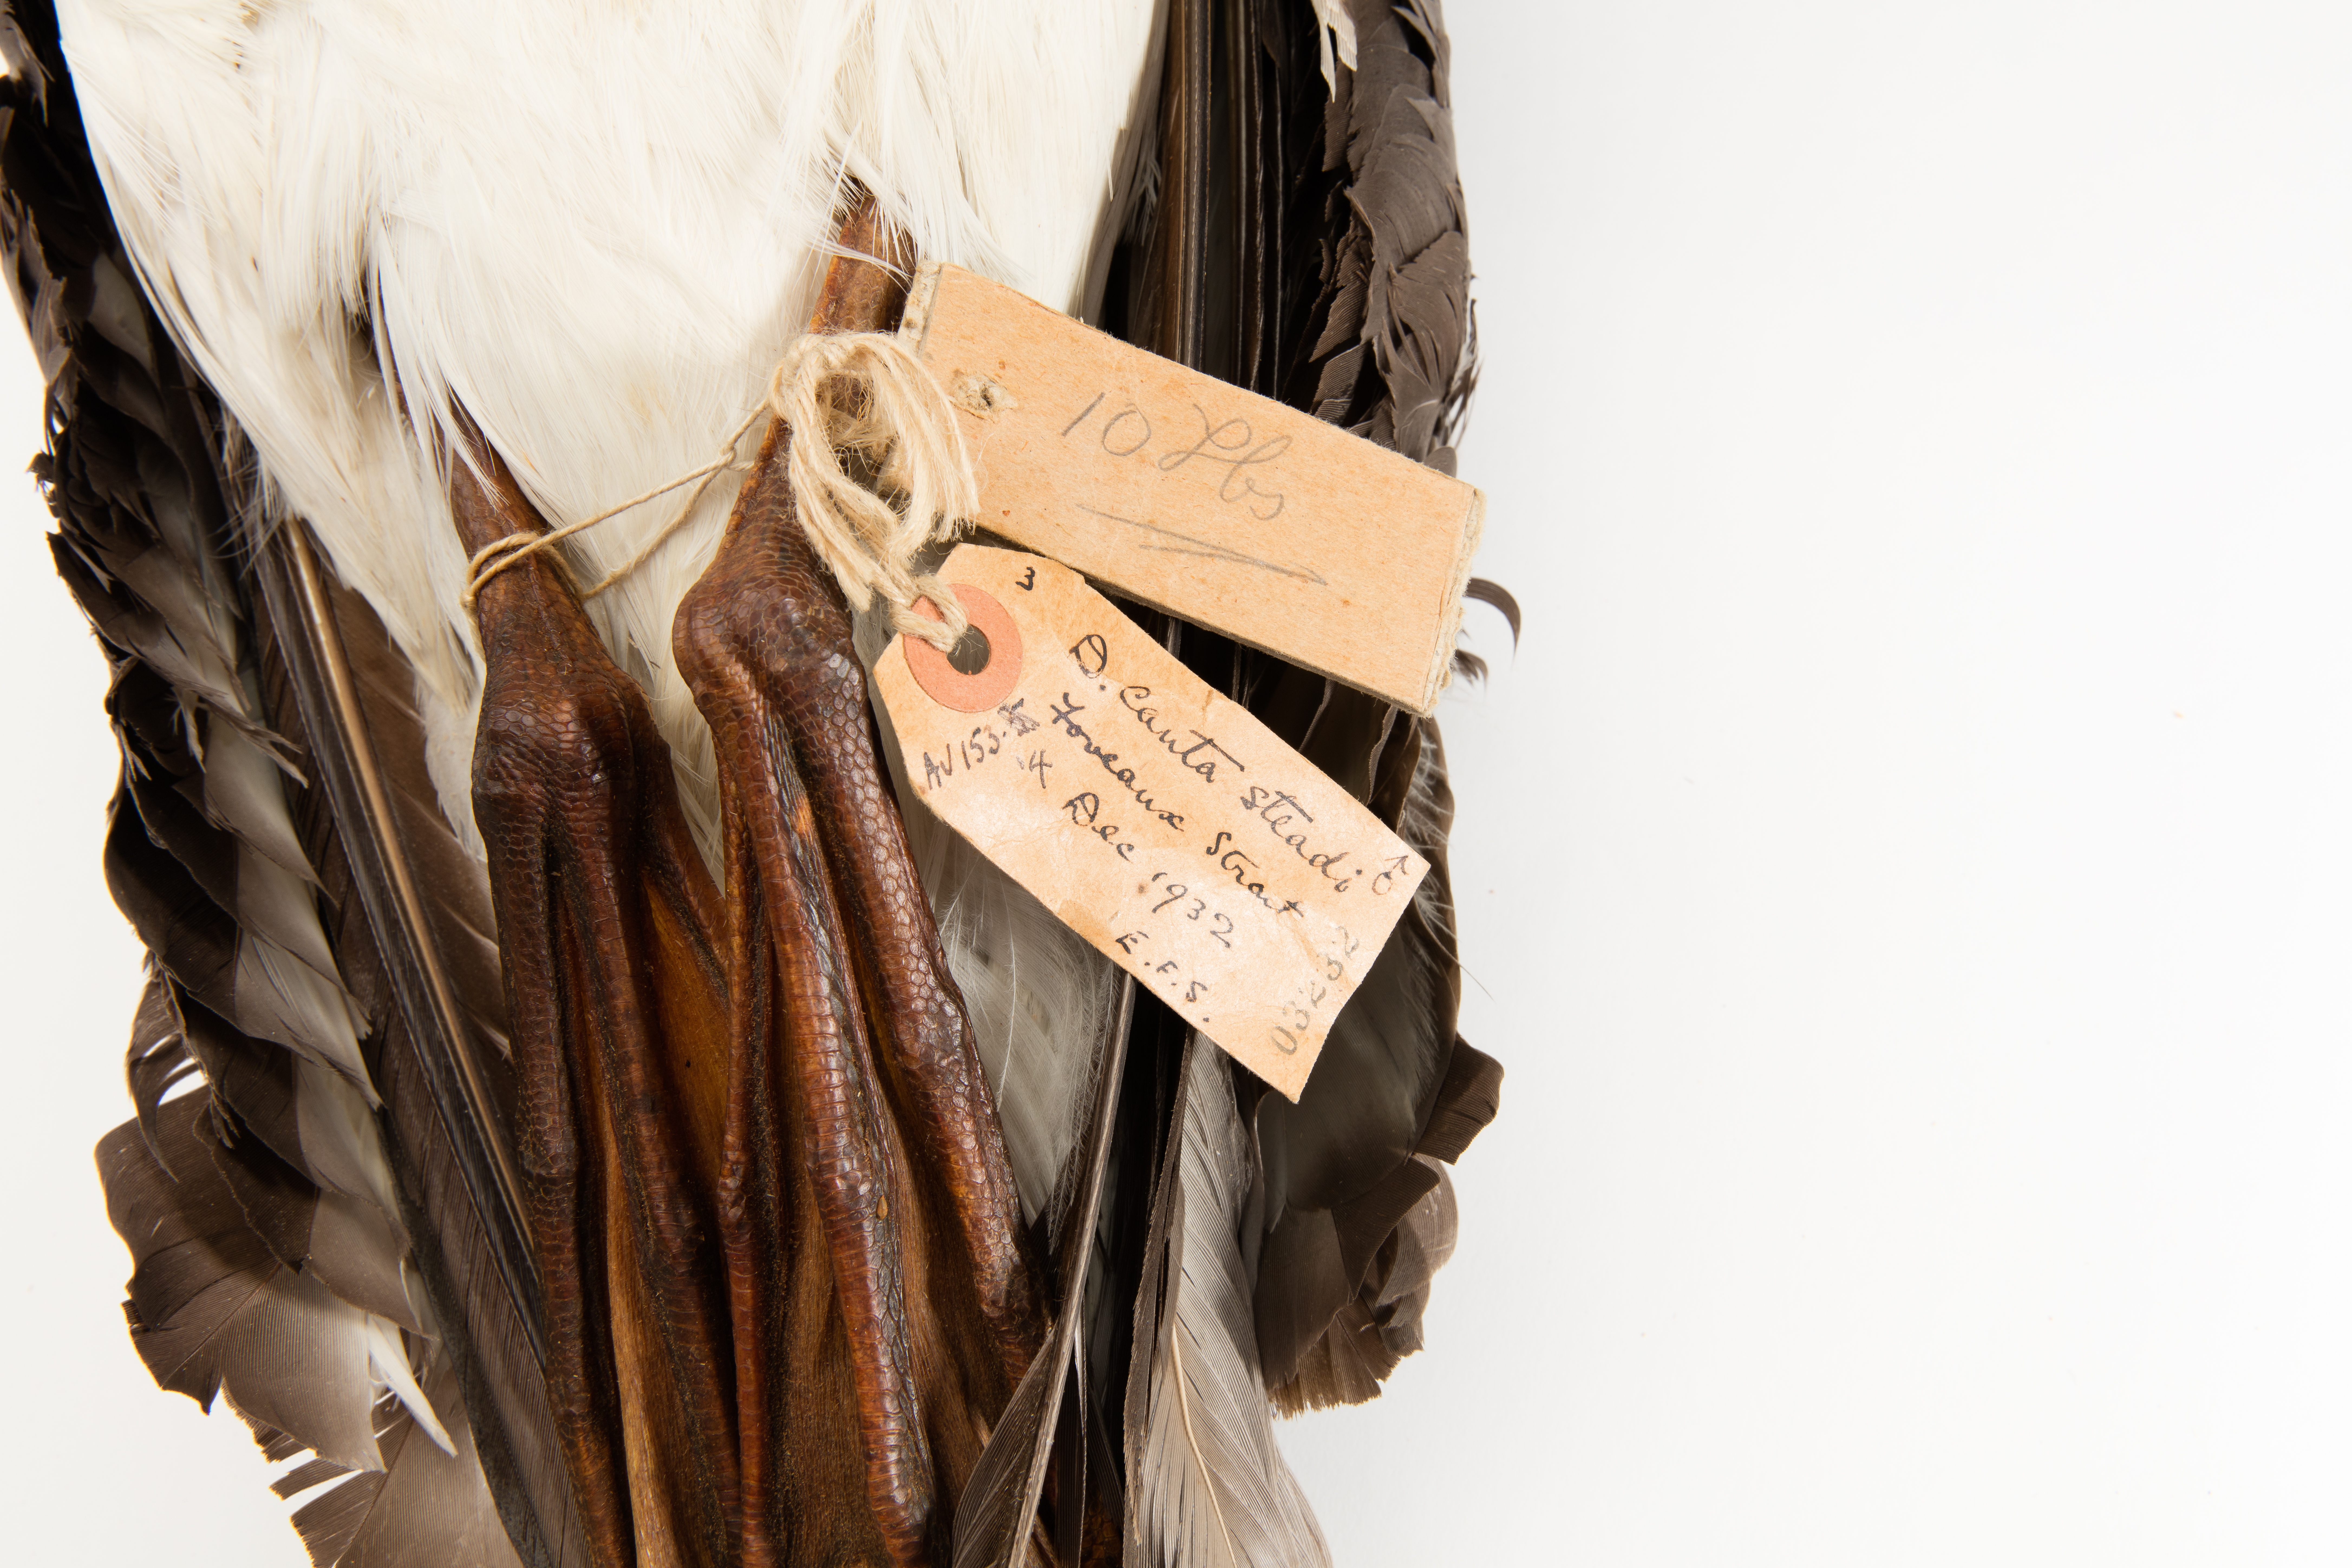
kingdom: Animalia
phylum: Chordata
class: Aves
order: Procellariiformes
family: Diomedeidae
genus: Thalassarche
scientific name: Thalassarche cauta
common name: Shy albatross
